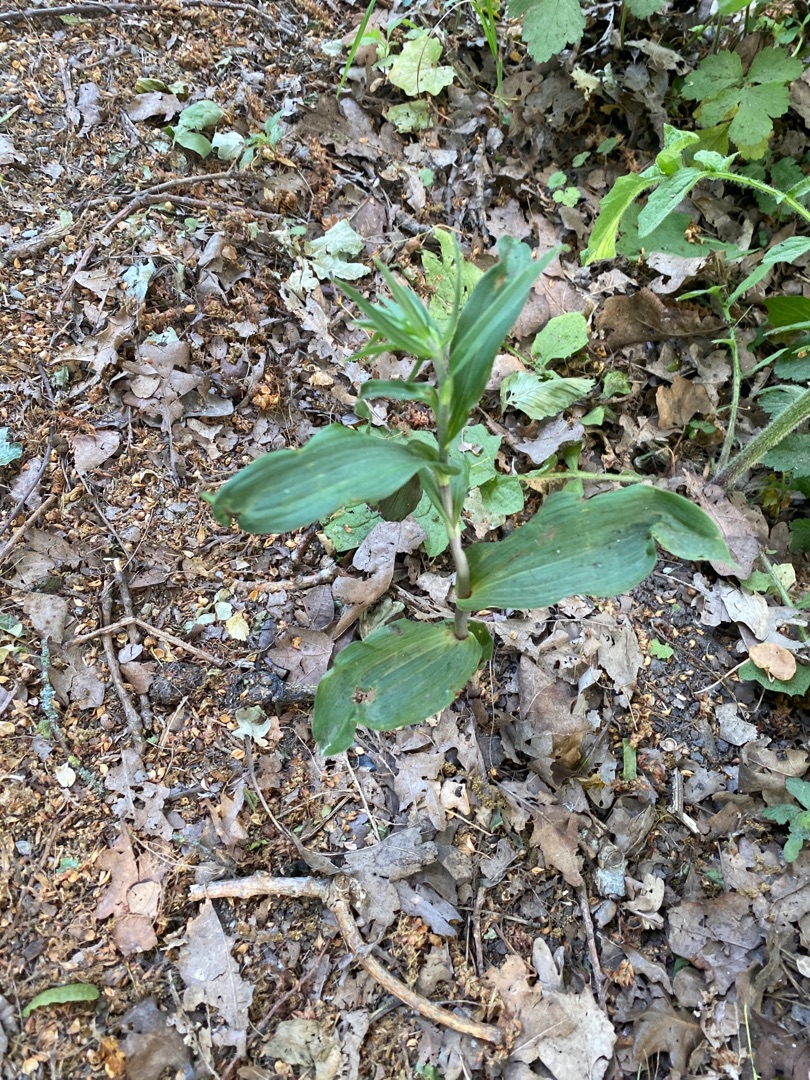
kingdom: Plantae
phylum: Tracheophyta
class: Liliopsida
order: Asparagales
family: Orchidaceae
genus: Epipactis
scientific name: Epipactis helleborine
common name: Skov-hullæbe
